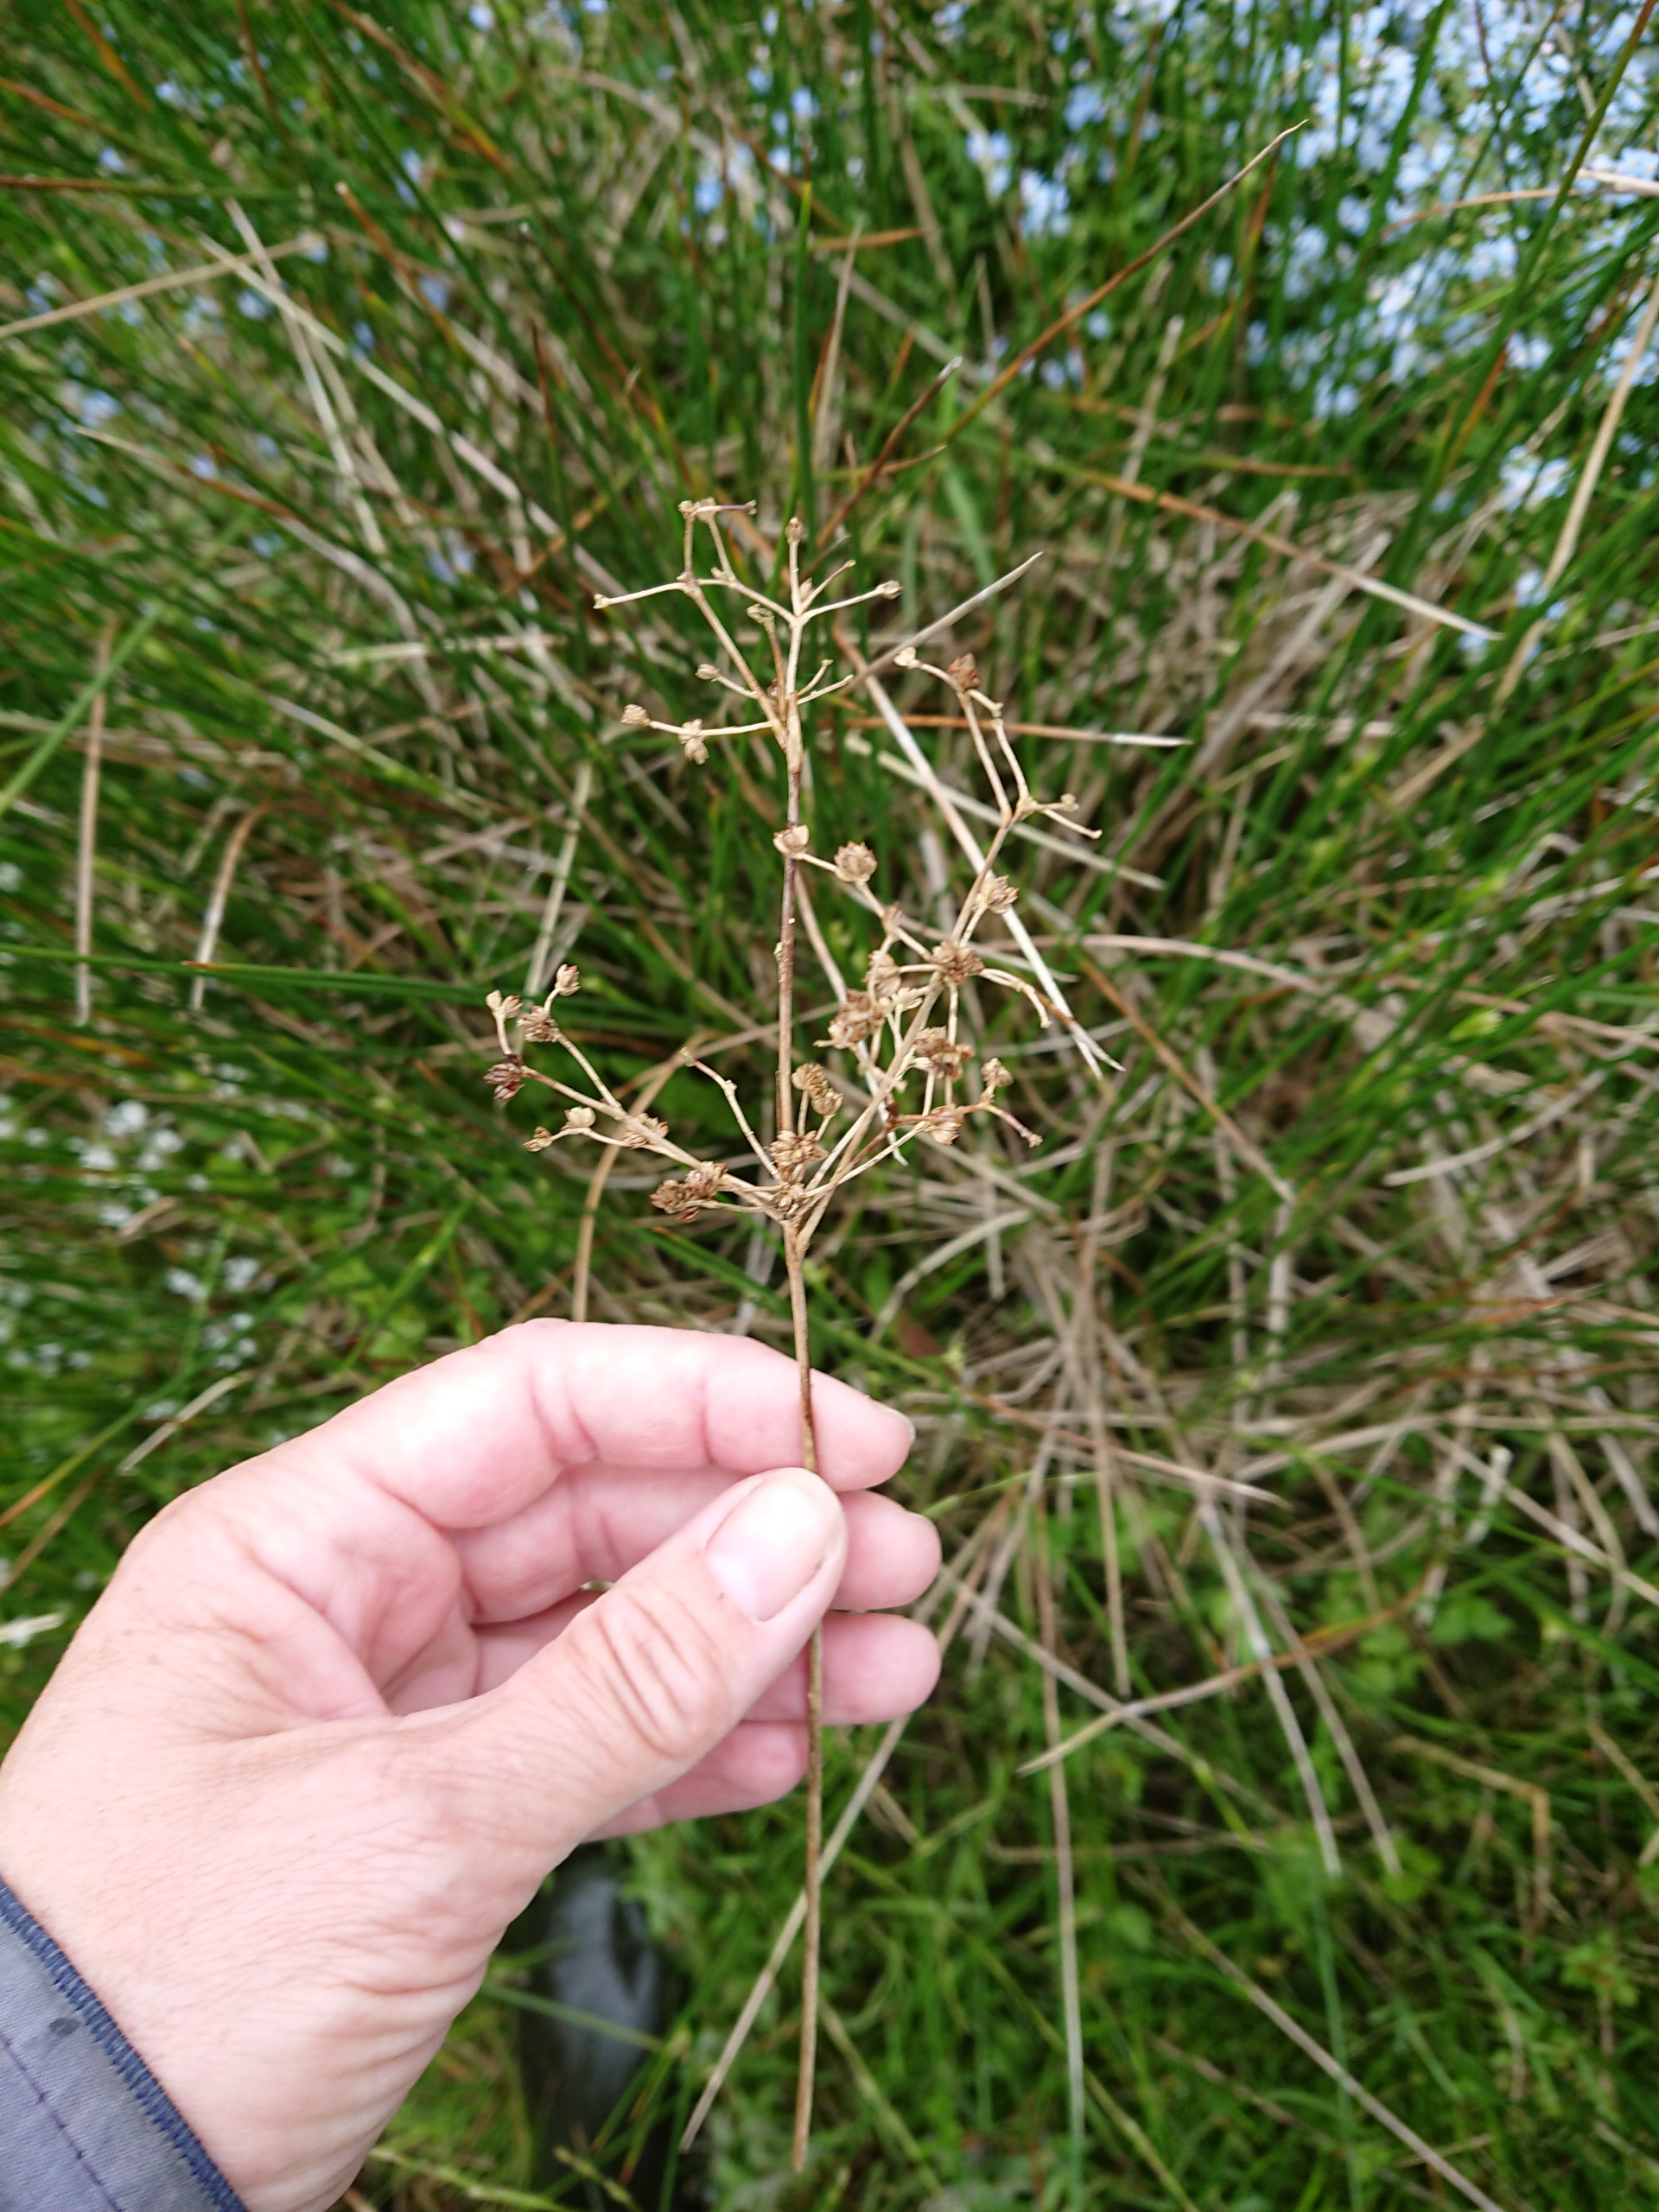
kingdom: Plantae
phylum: Tracheophyta
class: Liliopsida
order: Poales
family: Juncaceae
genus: Juncus
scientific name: Juncus subnodulosus
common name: Butblomstret siv
